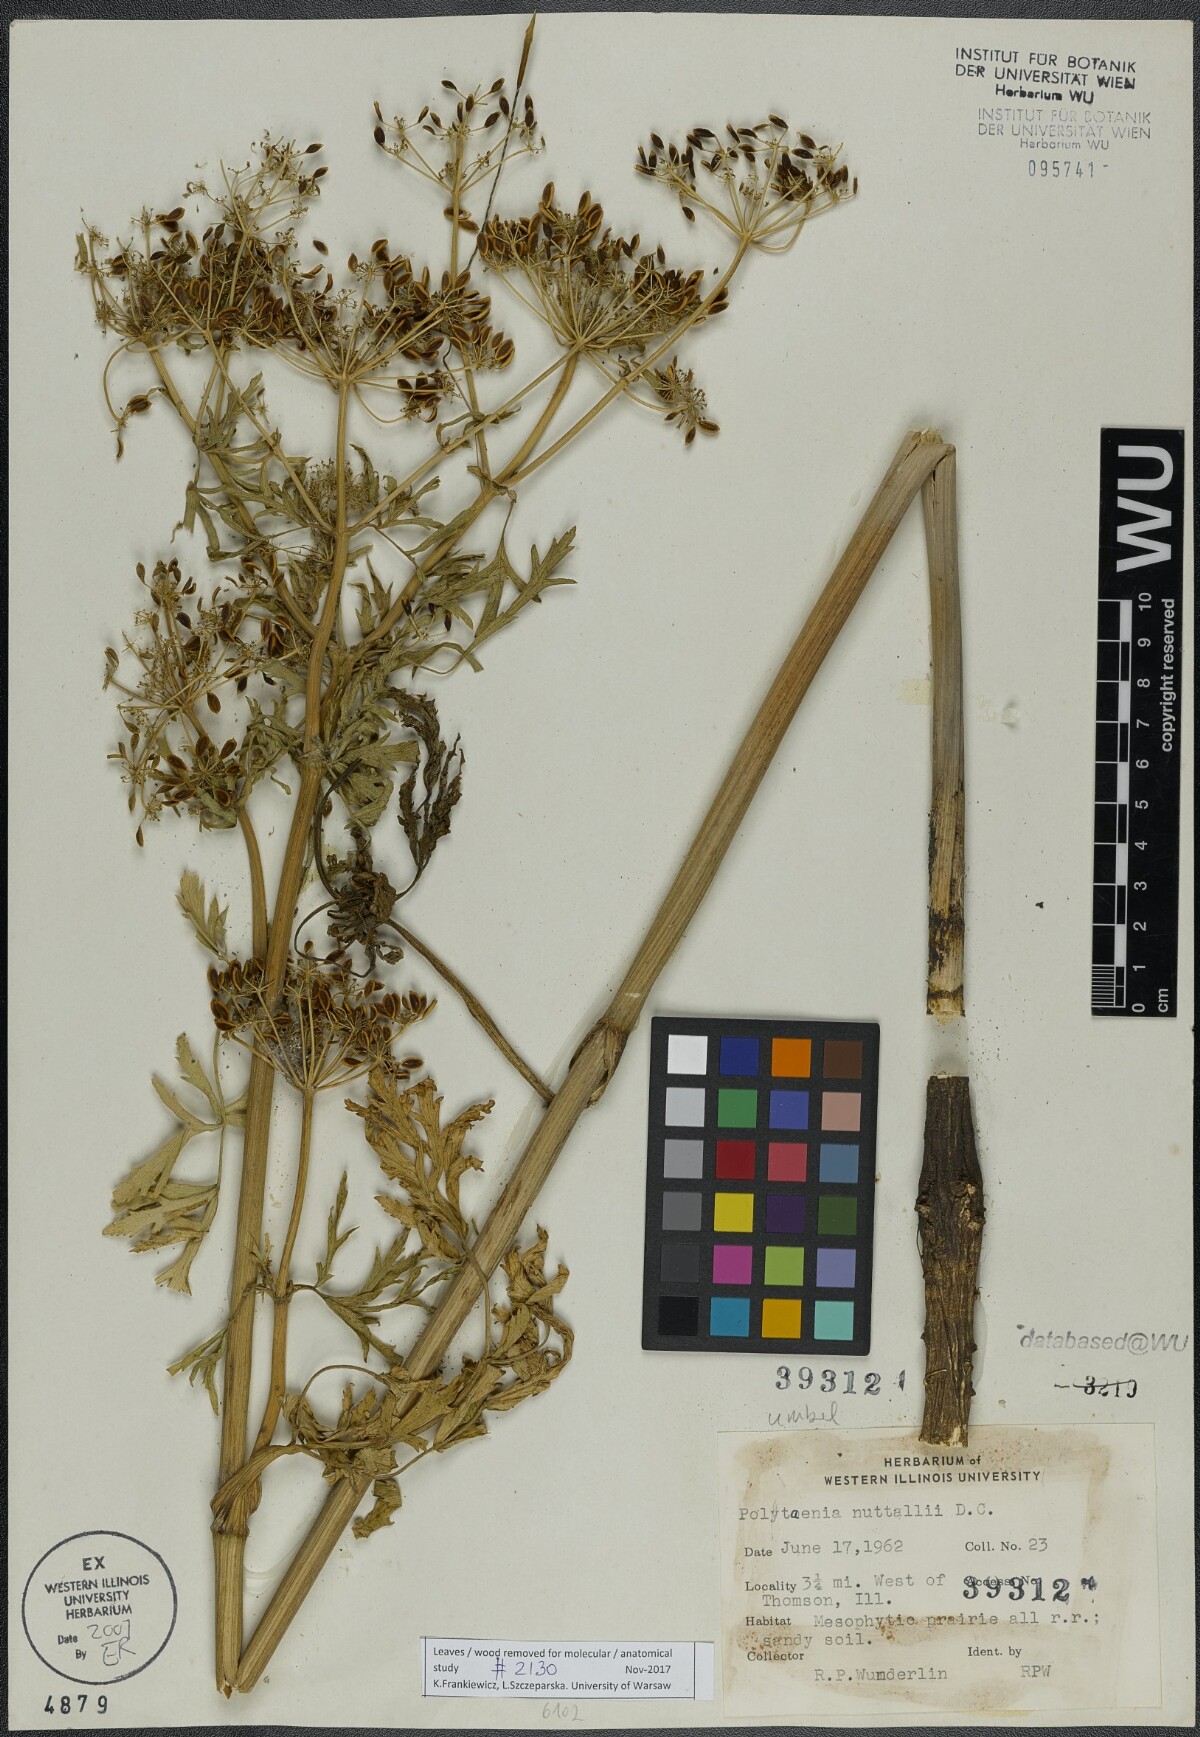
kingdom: Plantae
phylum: Tracheophyta
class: Magnoliopsida
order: Apiales
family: Apiaceae
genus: Polytaenia
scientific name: Polytaenia nuttallii
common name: Prairie-parsley
